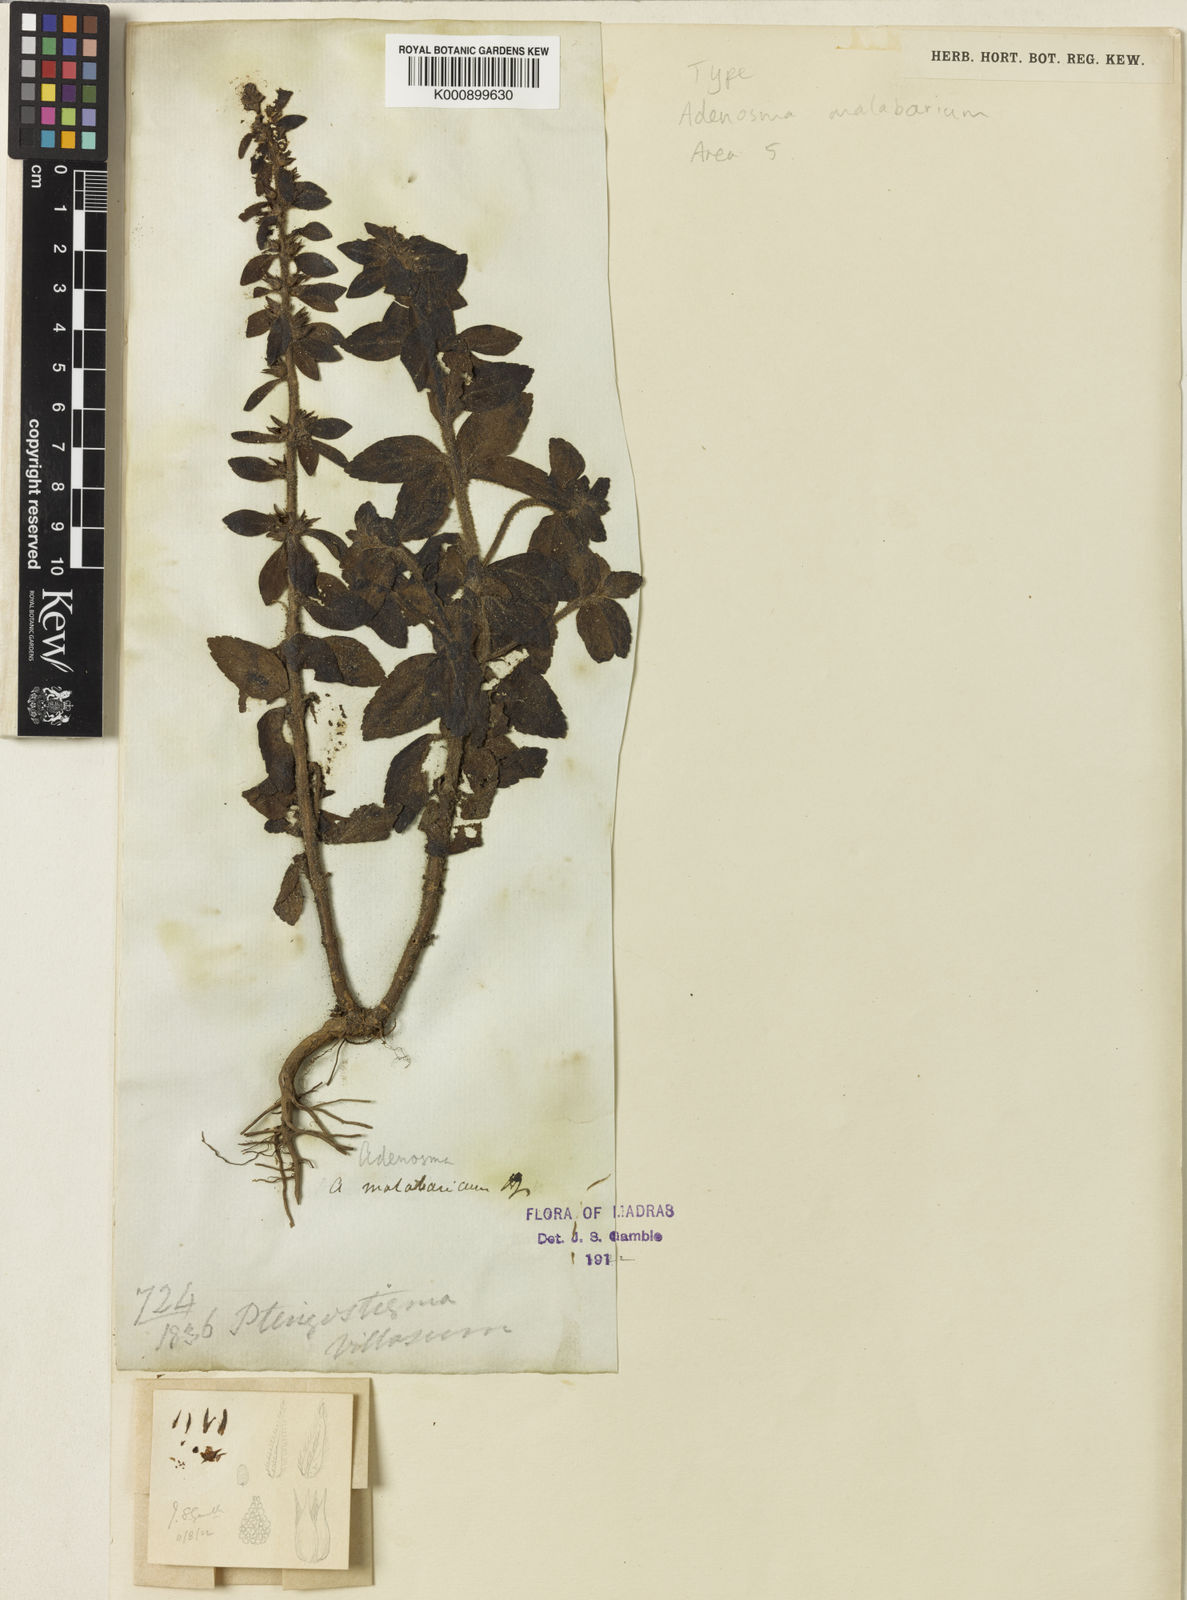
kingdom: Plantae
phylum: Tracheophyta
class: Magnoliopsida
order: Lamiales
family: Plantaginaceae
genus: Adenosma
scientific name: Adenosma malabarica
